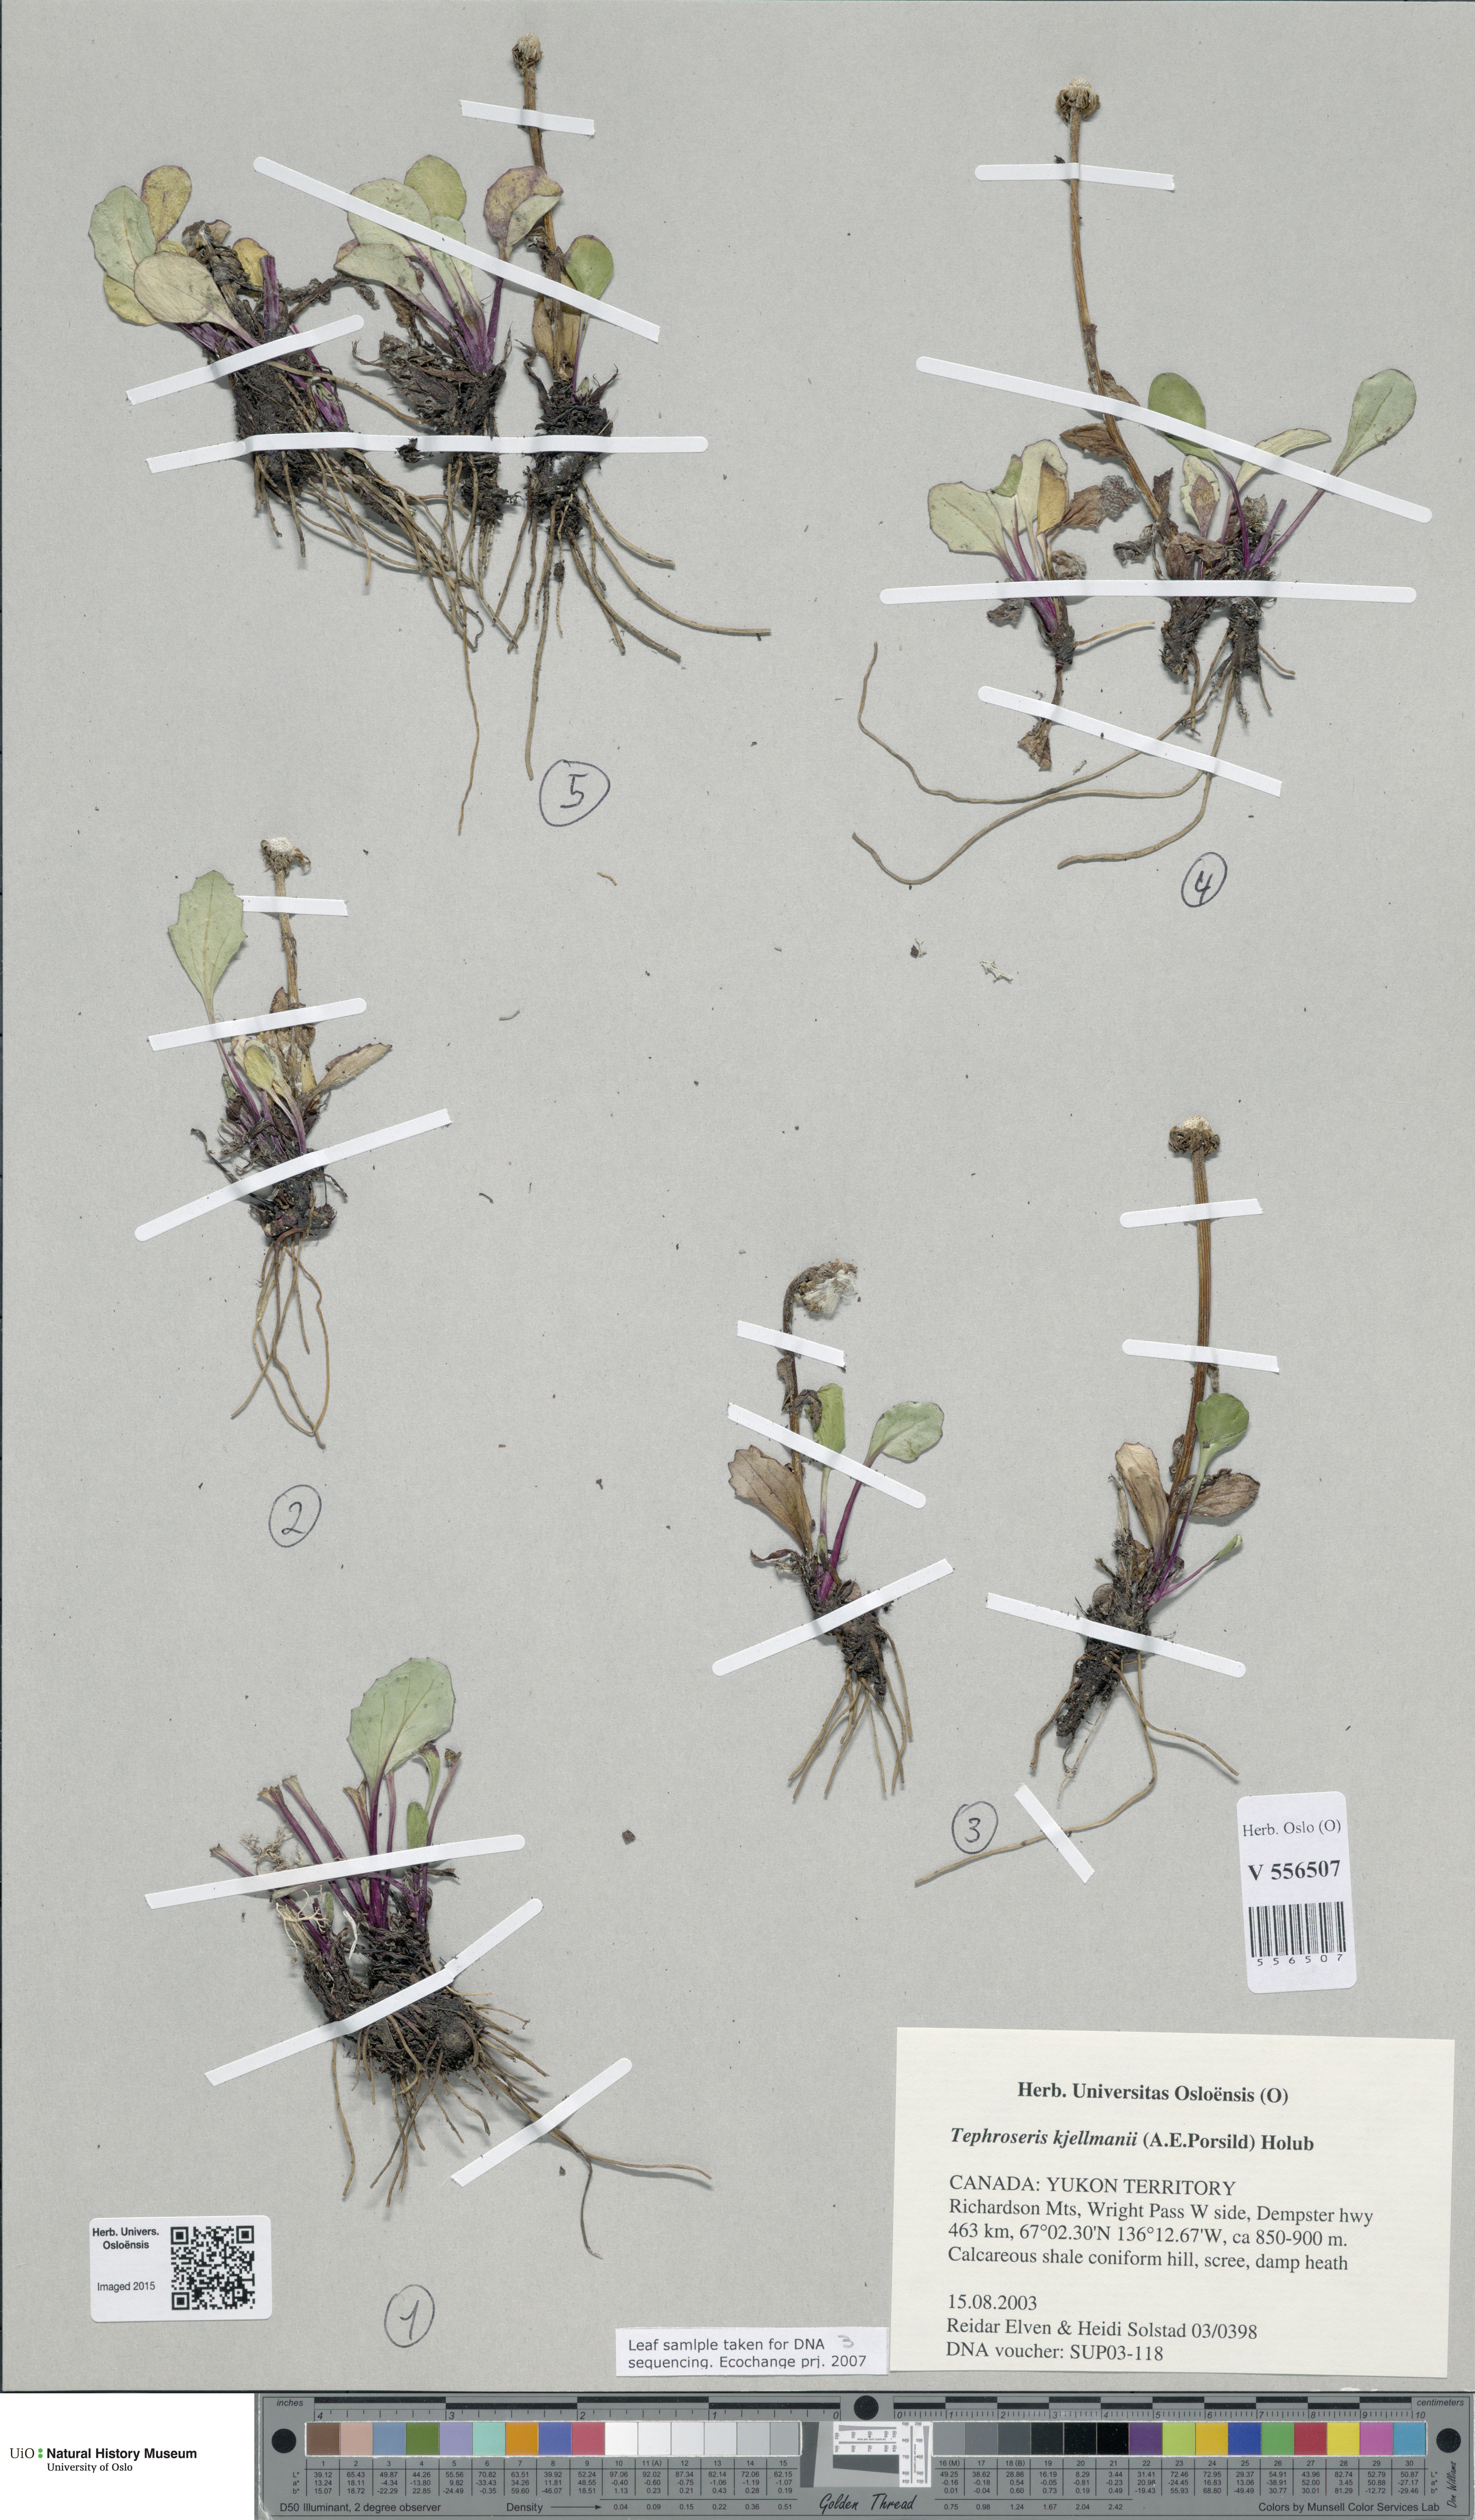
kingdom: Plantae
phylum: Tracheophyta
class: Magnoliopsida
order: Asterales
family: Asteraceae
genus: Tephroseris
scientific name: Tephroseris kjellmanii
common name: Kjellman's groundsel
